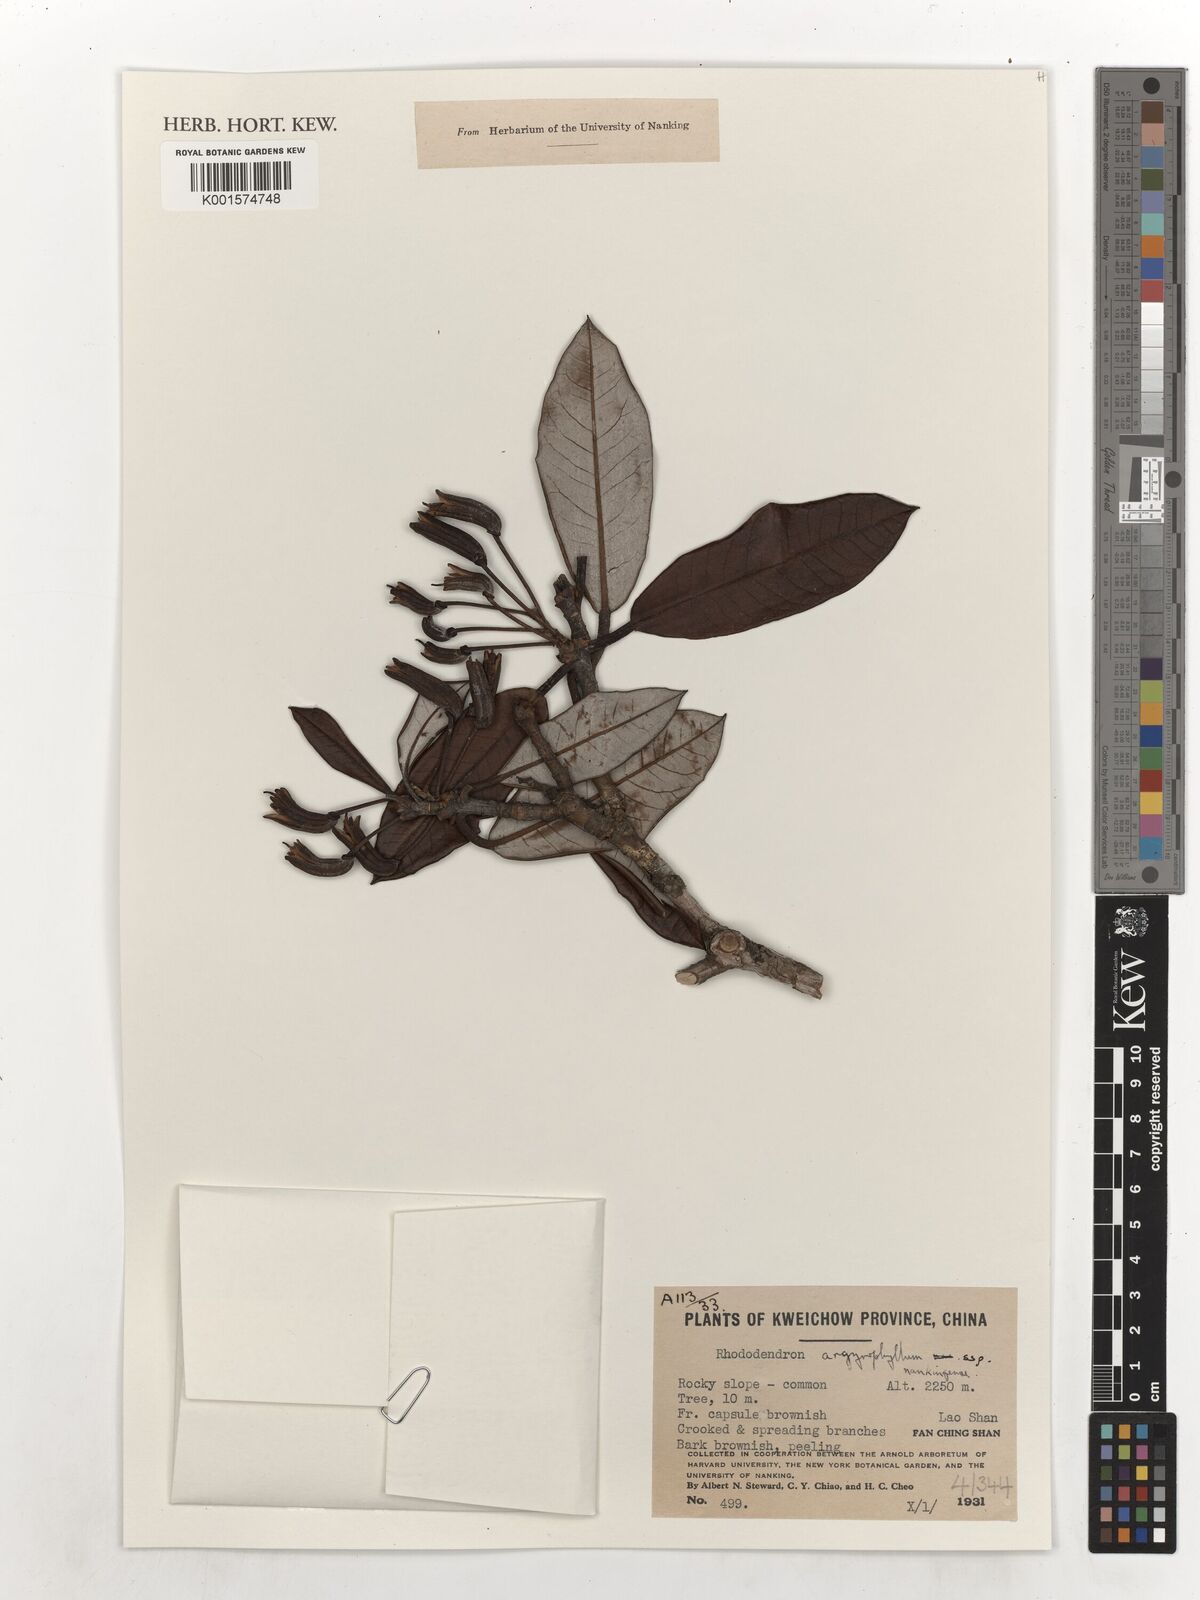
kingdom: Plantae
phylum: Tracheophyta
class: Magnoliopsida
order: Ericales
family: Ericaceae
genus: Rhododendron
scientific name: Rhododendron argyrophyllum
